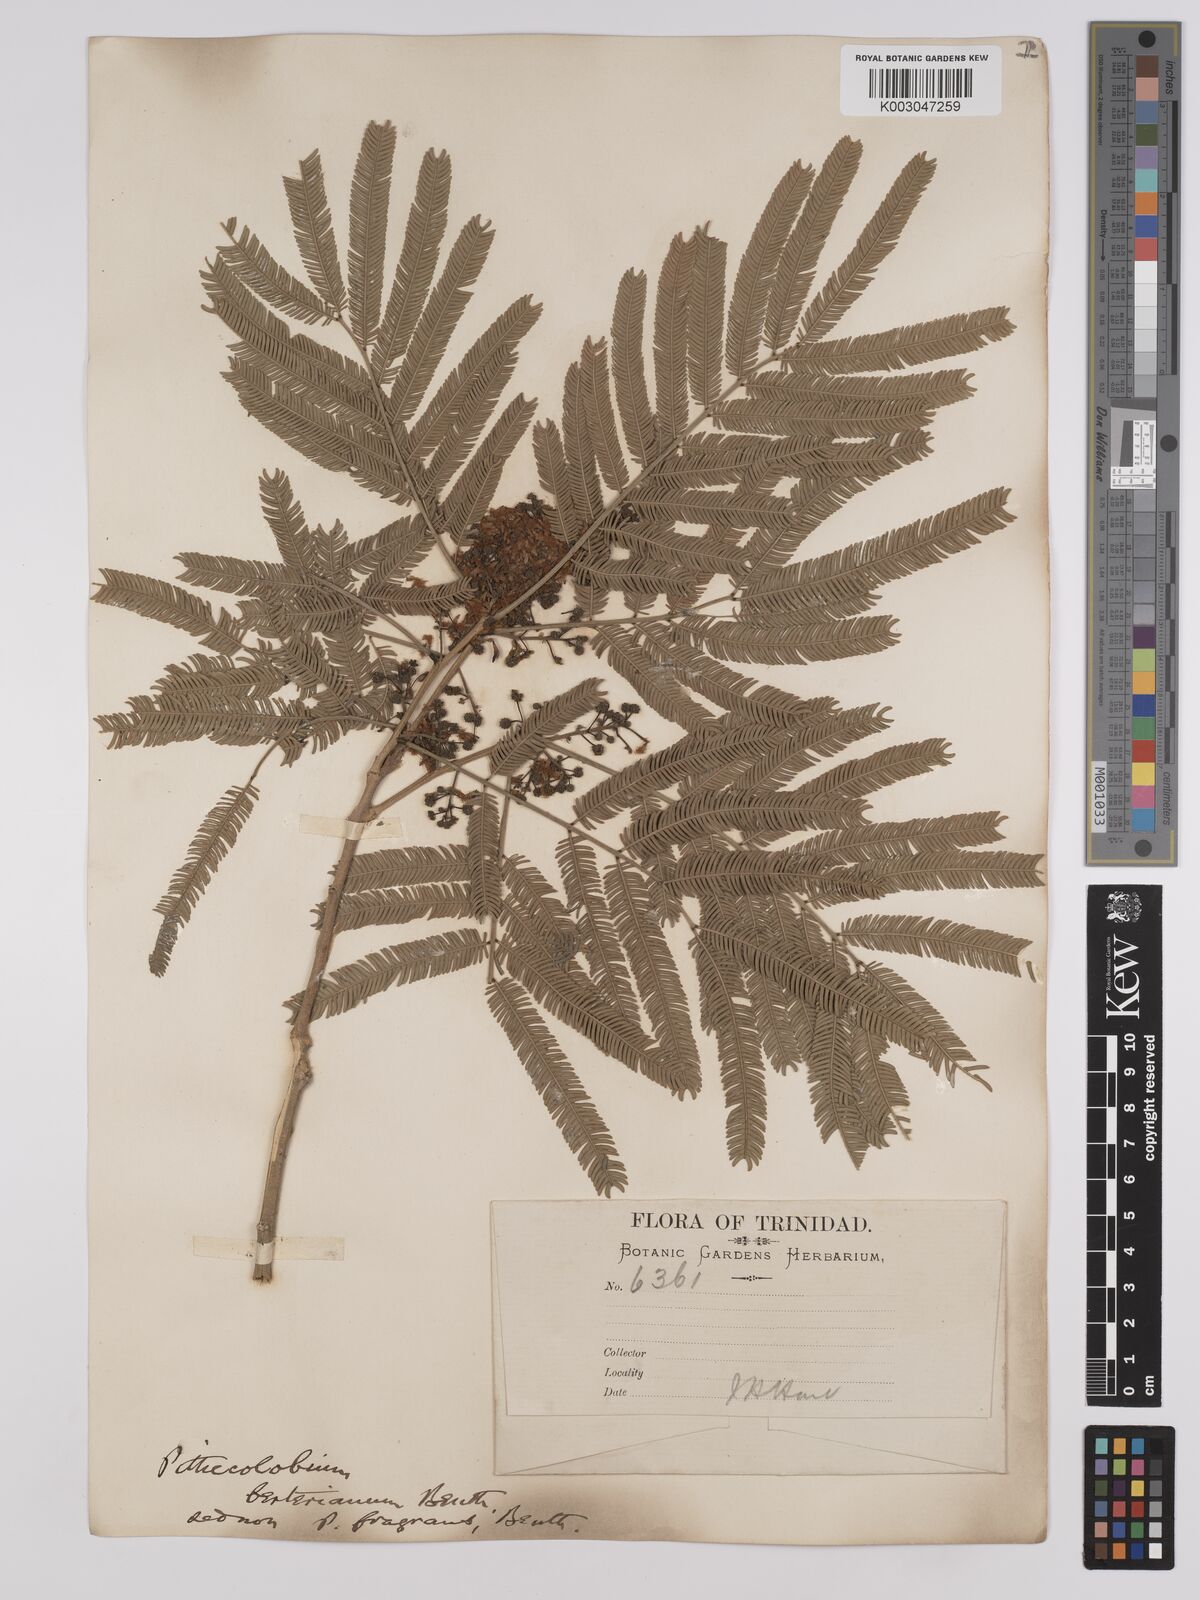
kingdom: Plantae
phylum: Tracheophyta
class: Magnoliopsida
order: Fabales
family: Fabaceae
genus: Albizia
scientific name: Albizia niopoides
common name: Silk tree
